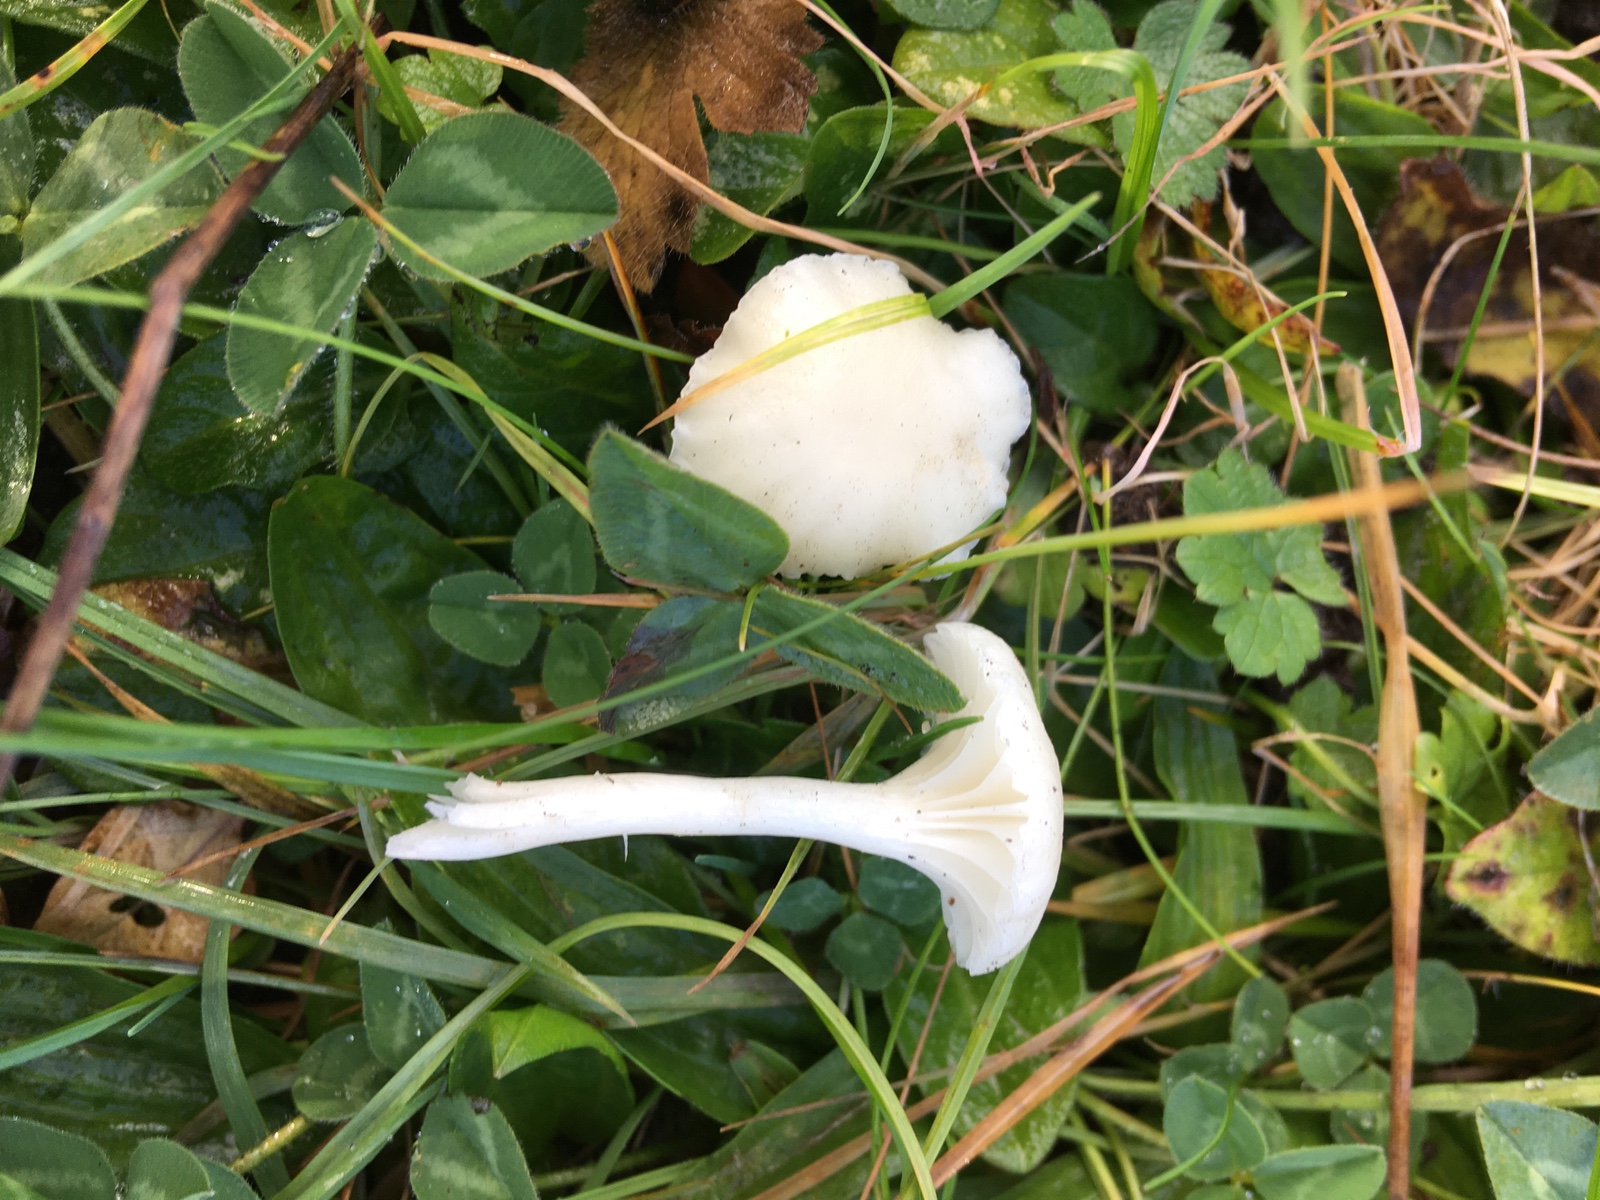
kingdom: Fungi
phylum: Basidiomycota
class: Agaricomycetes
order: Agaricales
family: Hygrophoraceae
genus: Cuphophyllus
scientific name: Cuphophyllus virgineus
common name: snehvid vokshat
